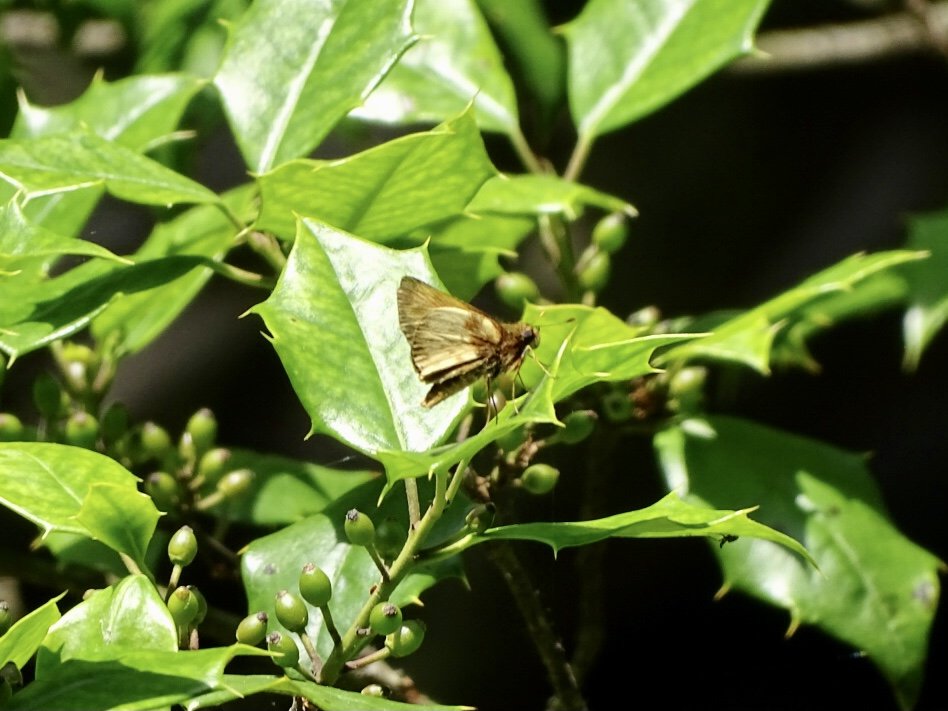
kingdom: Animalia
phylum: Arthropoda
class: Insecta
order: Lepidoptera
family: Hesperiidae
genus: Lon
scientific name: Lon zabulon
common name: Zabulon Skipper
